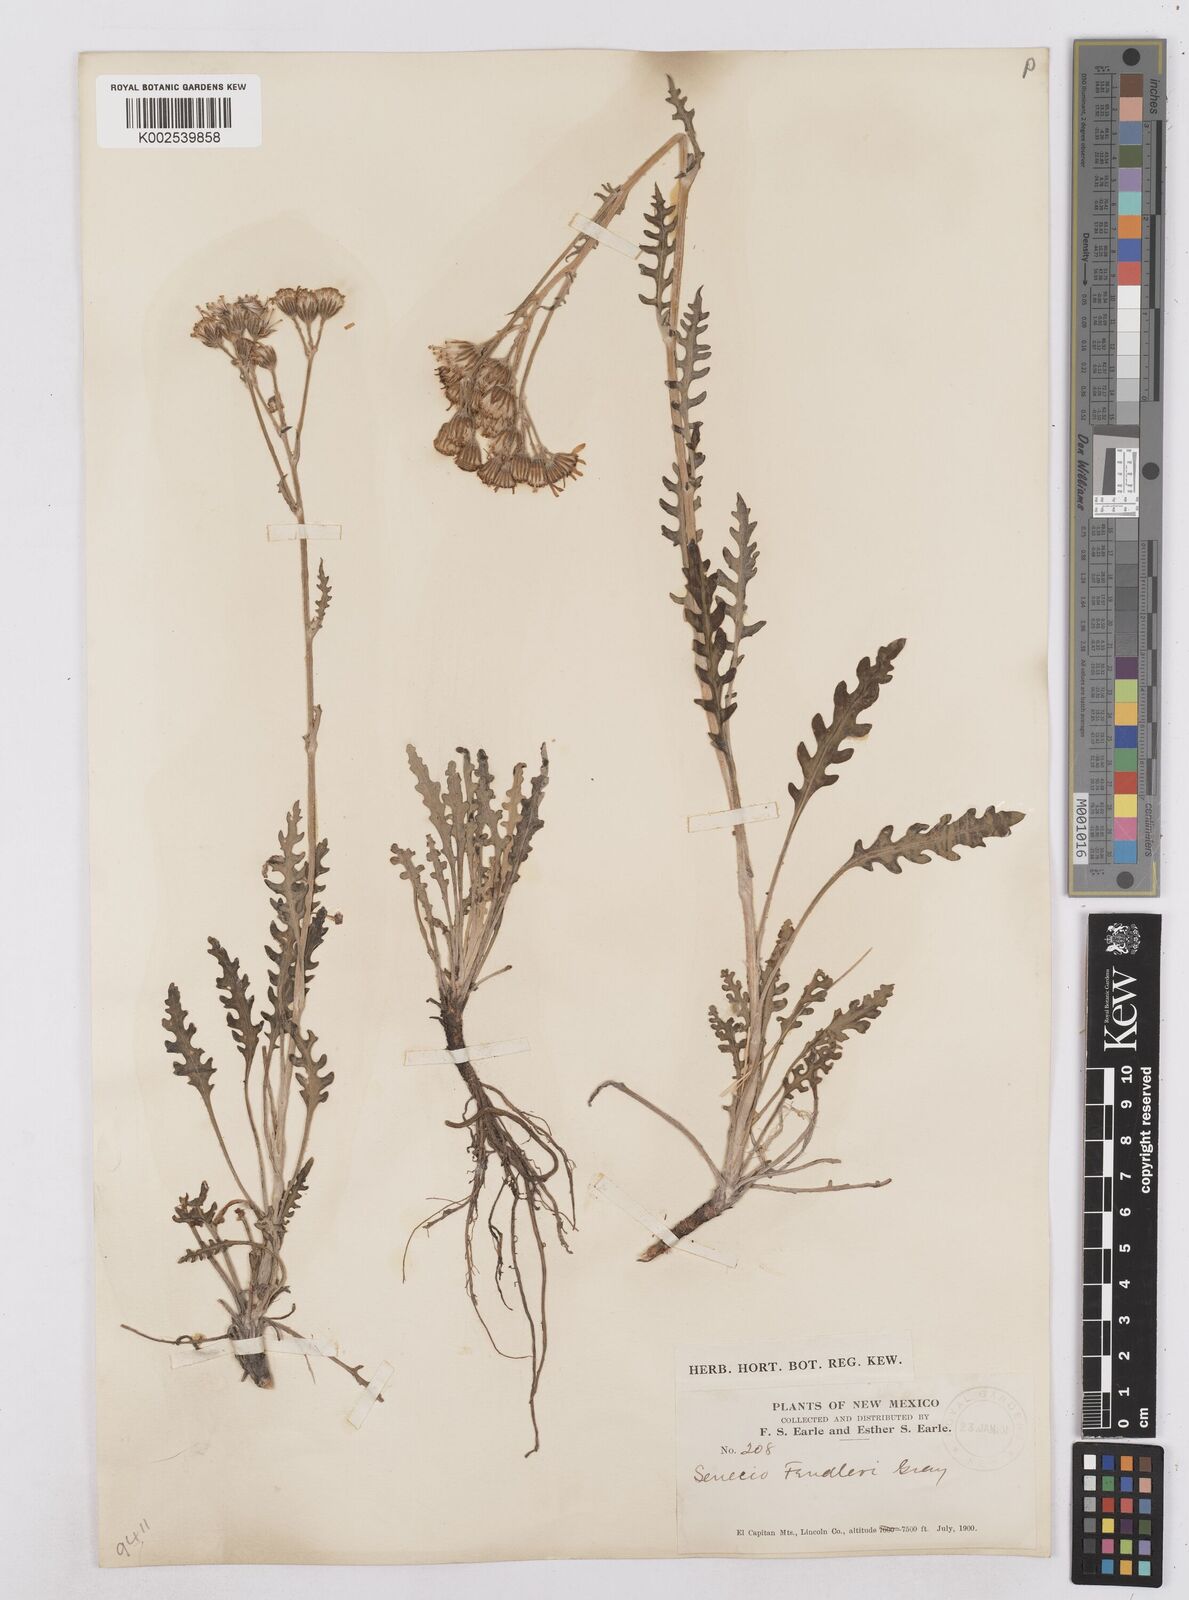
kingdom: Plantae
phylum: Tracheophyta
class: Magnoliopsida
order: Asterales
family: Asteraceae
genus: Packera
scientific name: Packera fendleri
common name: Notch-leaf butterweed
